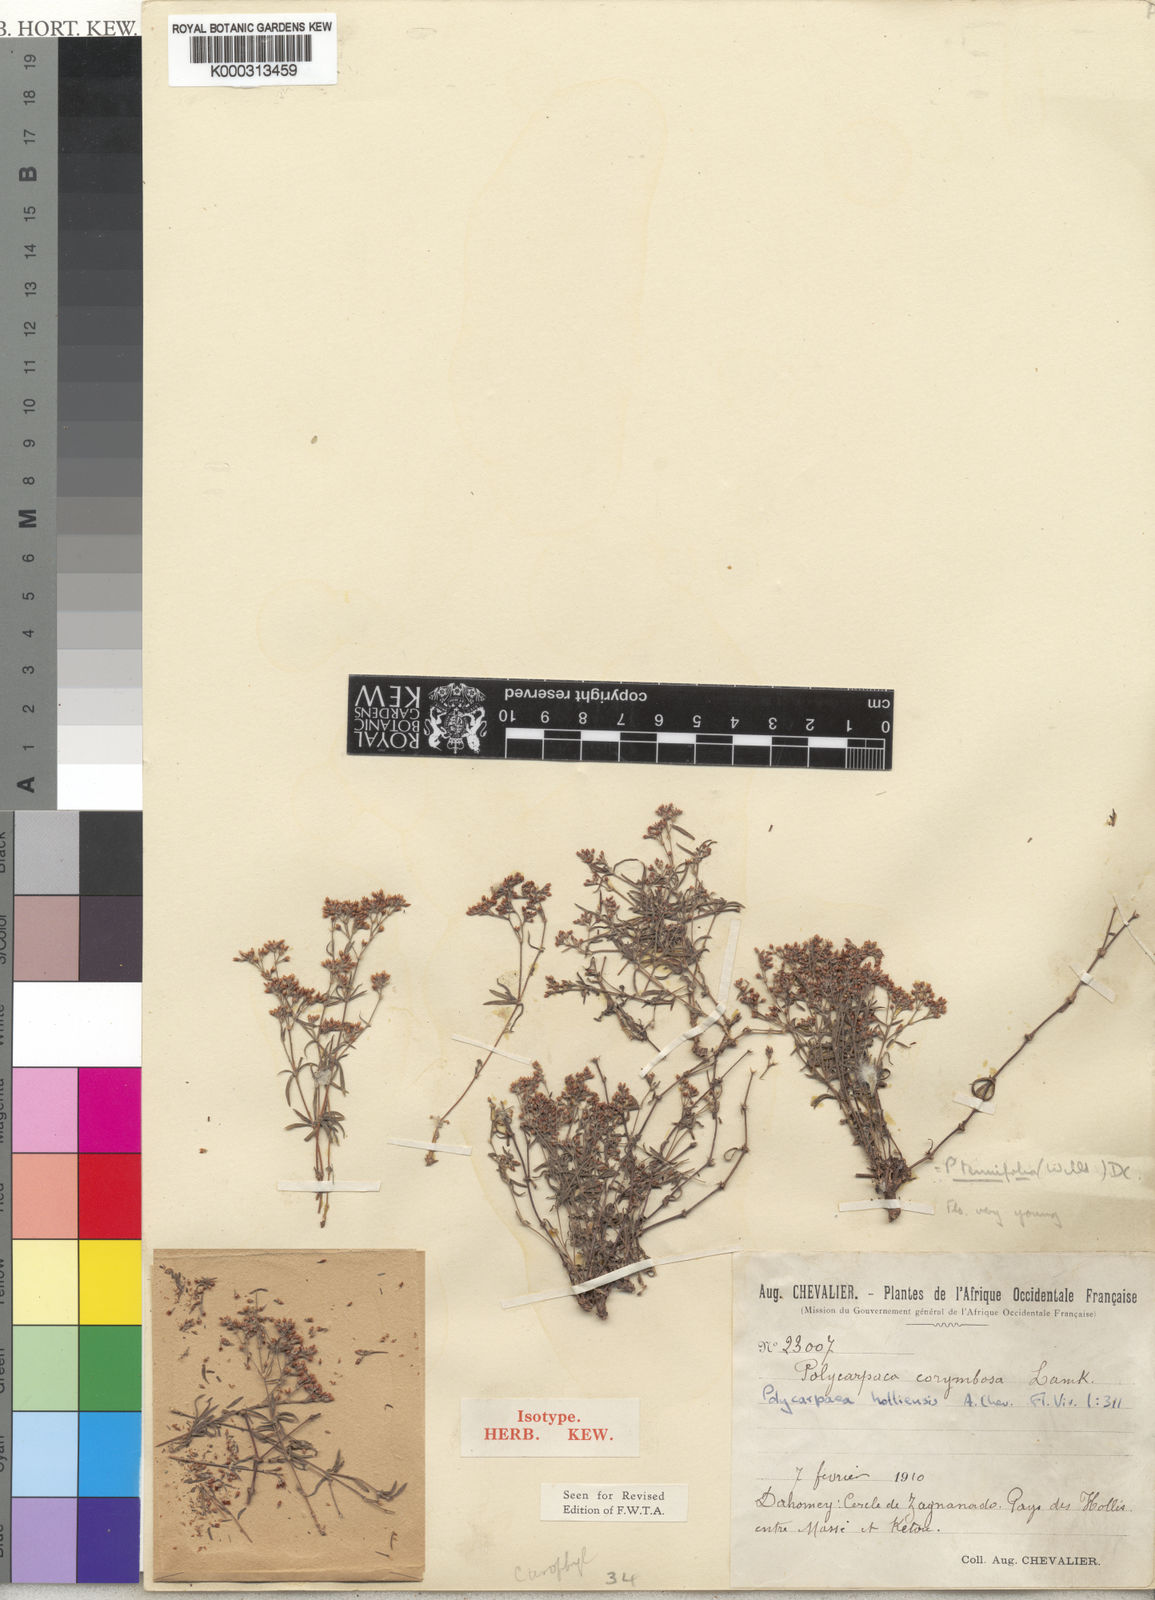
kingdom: Plantae
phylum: Tracheophyta
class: Magnoliopsida
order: Caryophyllales
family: Caryophyllaceae
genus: Polycarpaea
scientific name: Polycarpaea corymbosa
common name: Oldman's cap
